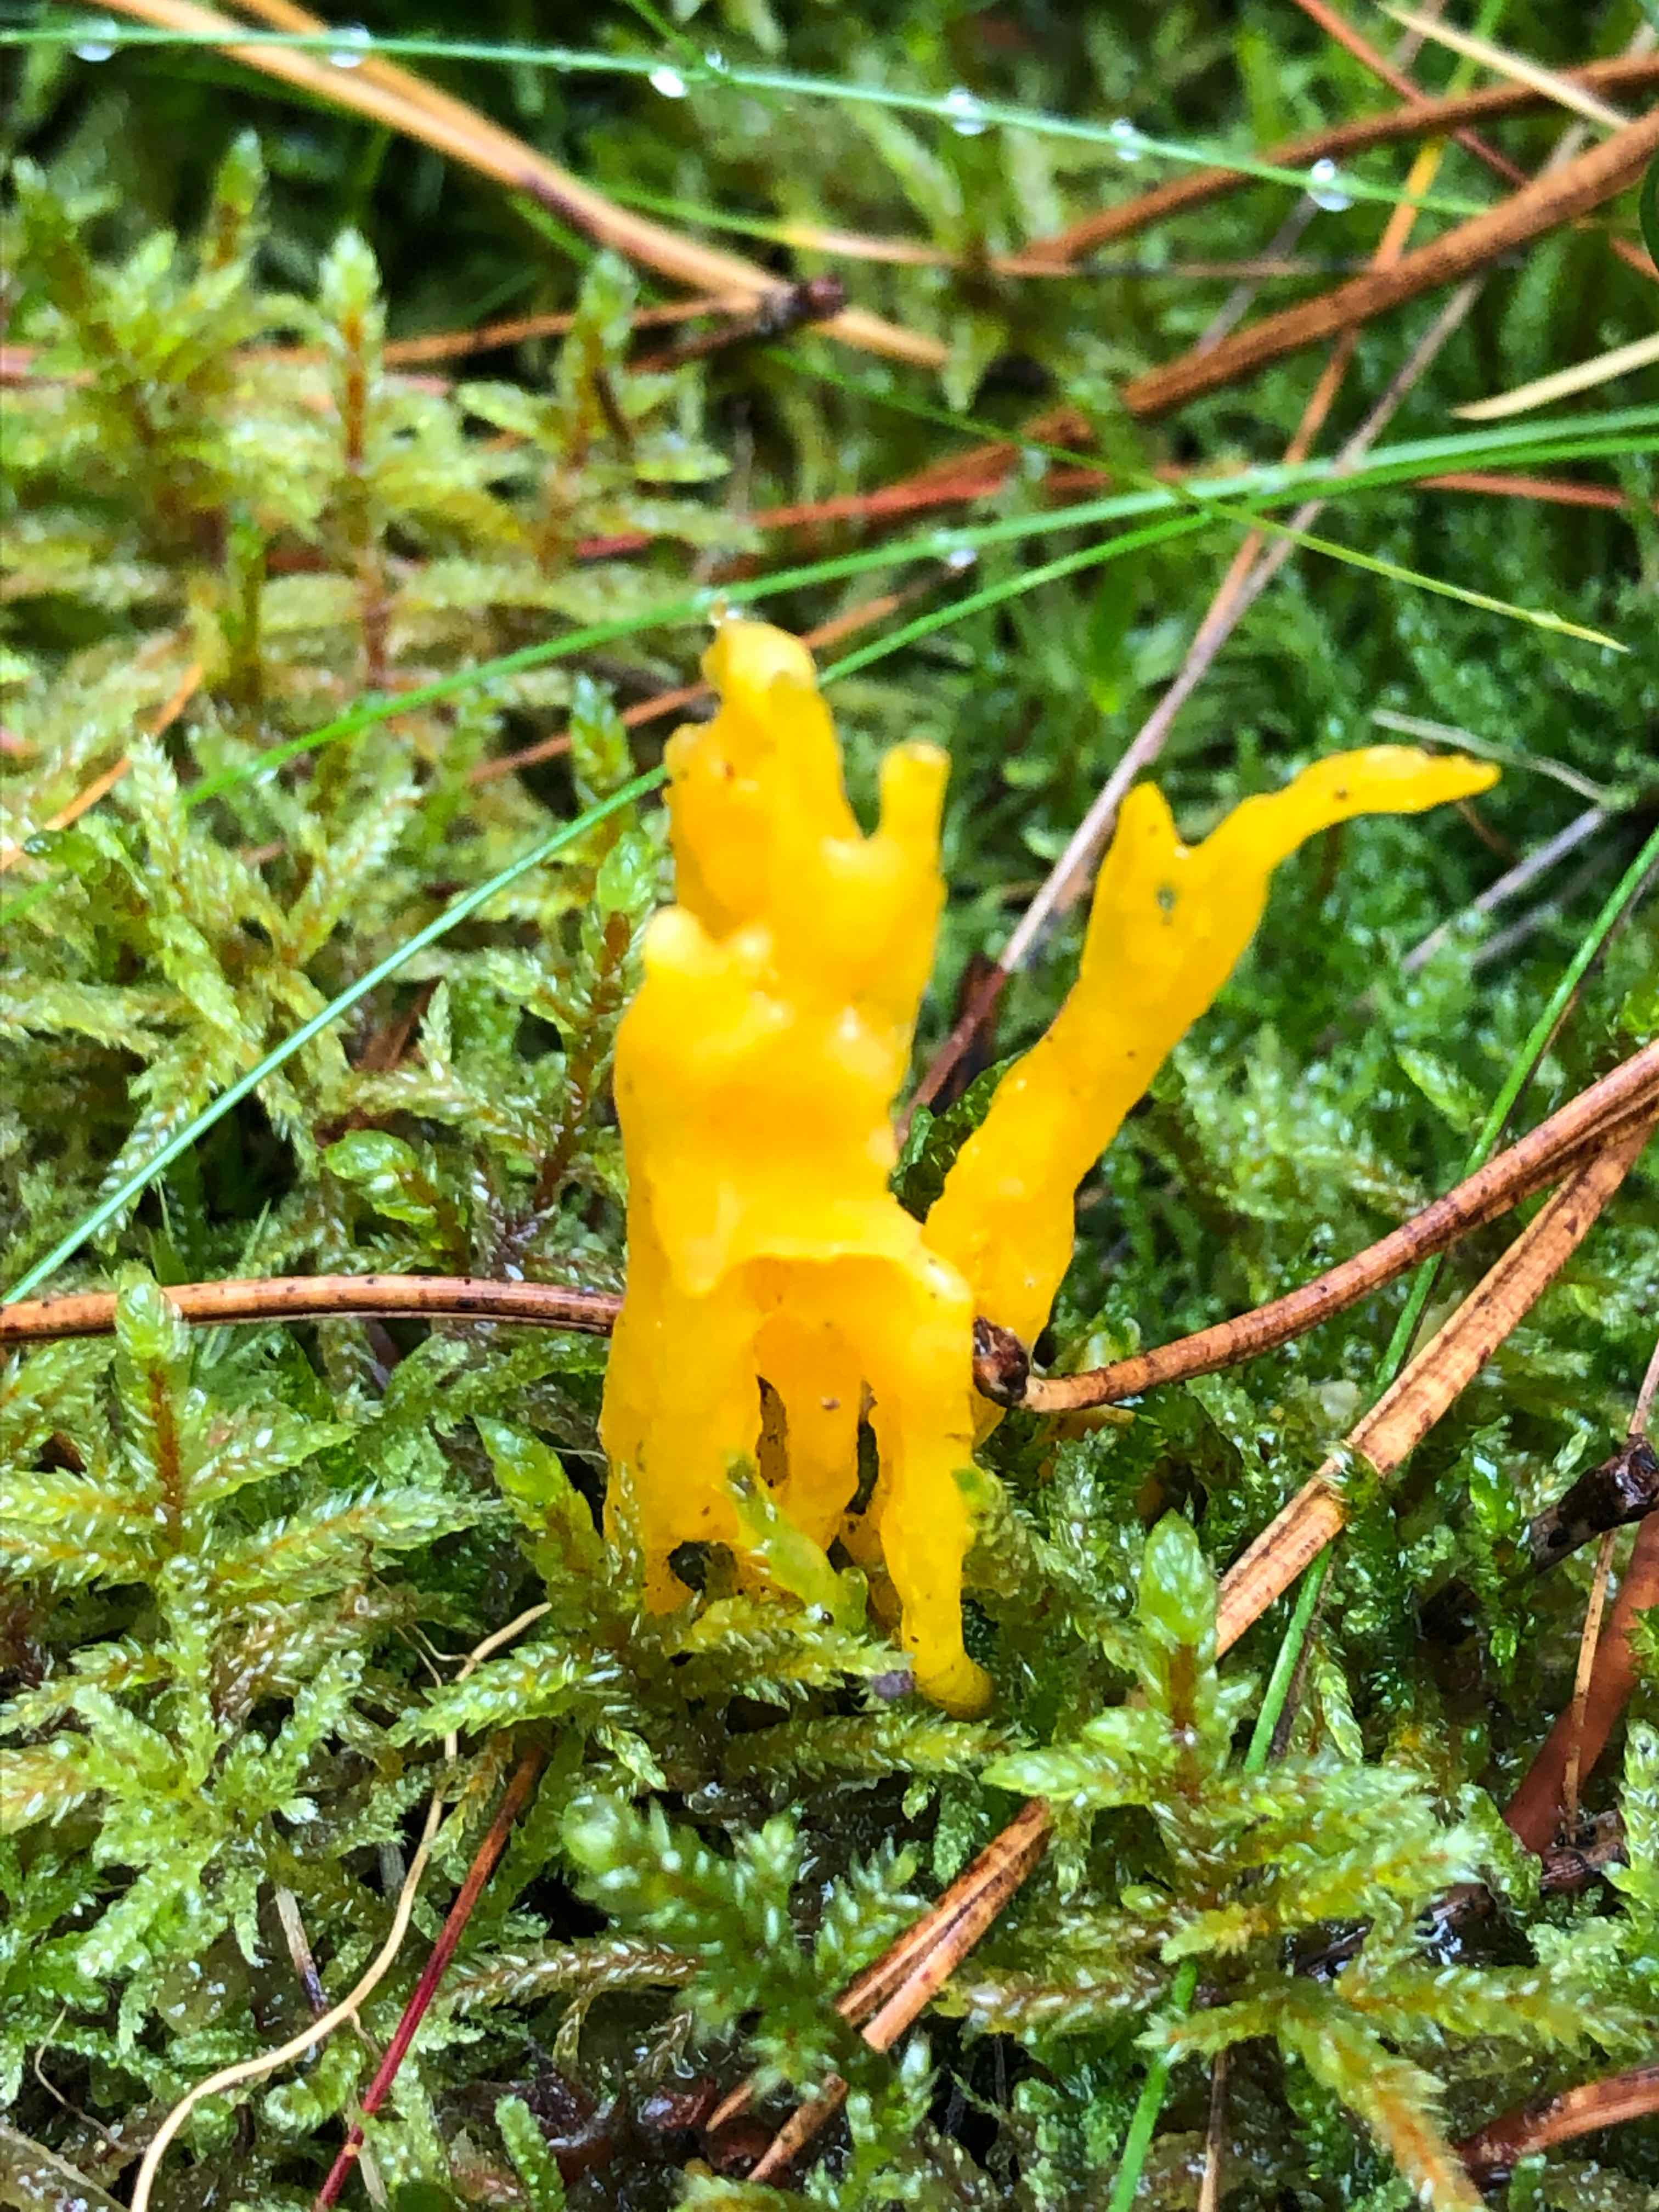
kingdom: Fungi
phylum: Basidiomycota
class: Dacrymycetes
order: Dacrymycetales
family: Dacrymycetaceae
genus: Calocera
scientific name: Calocera viscosa
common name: almindelig guldgaffel
